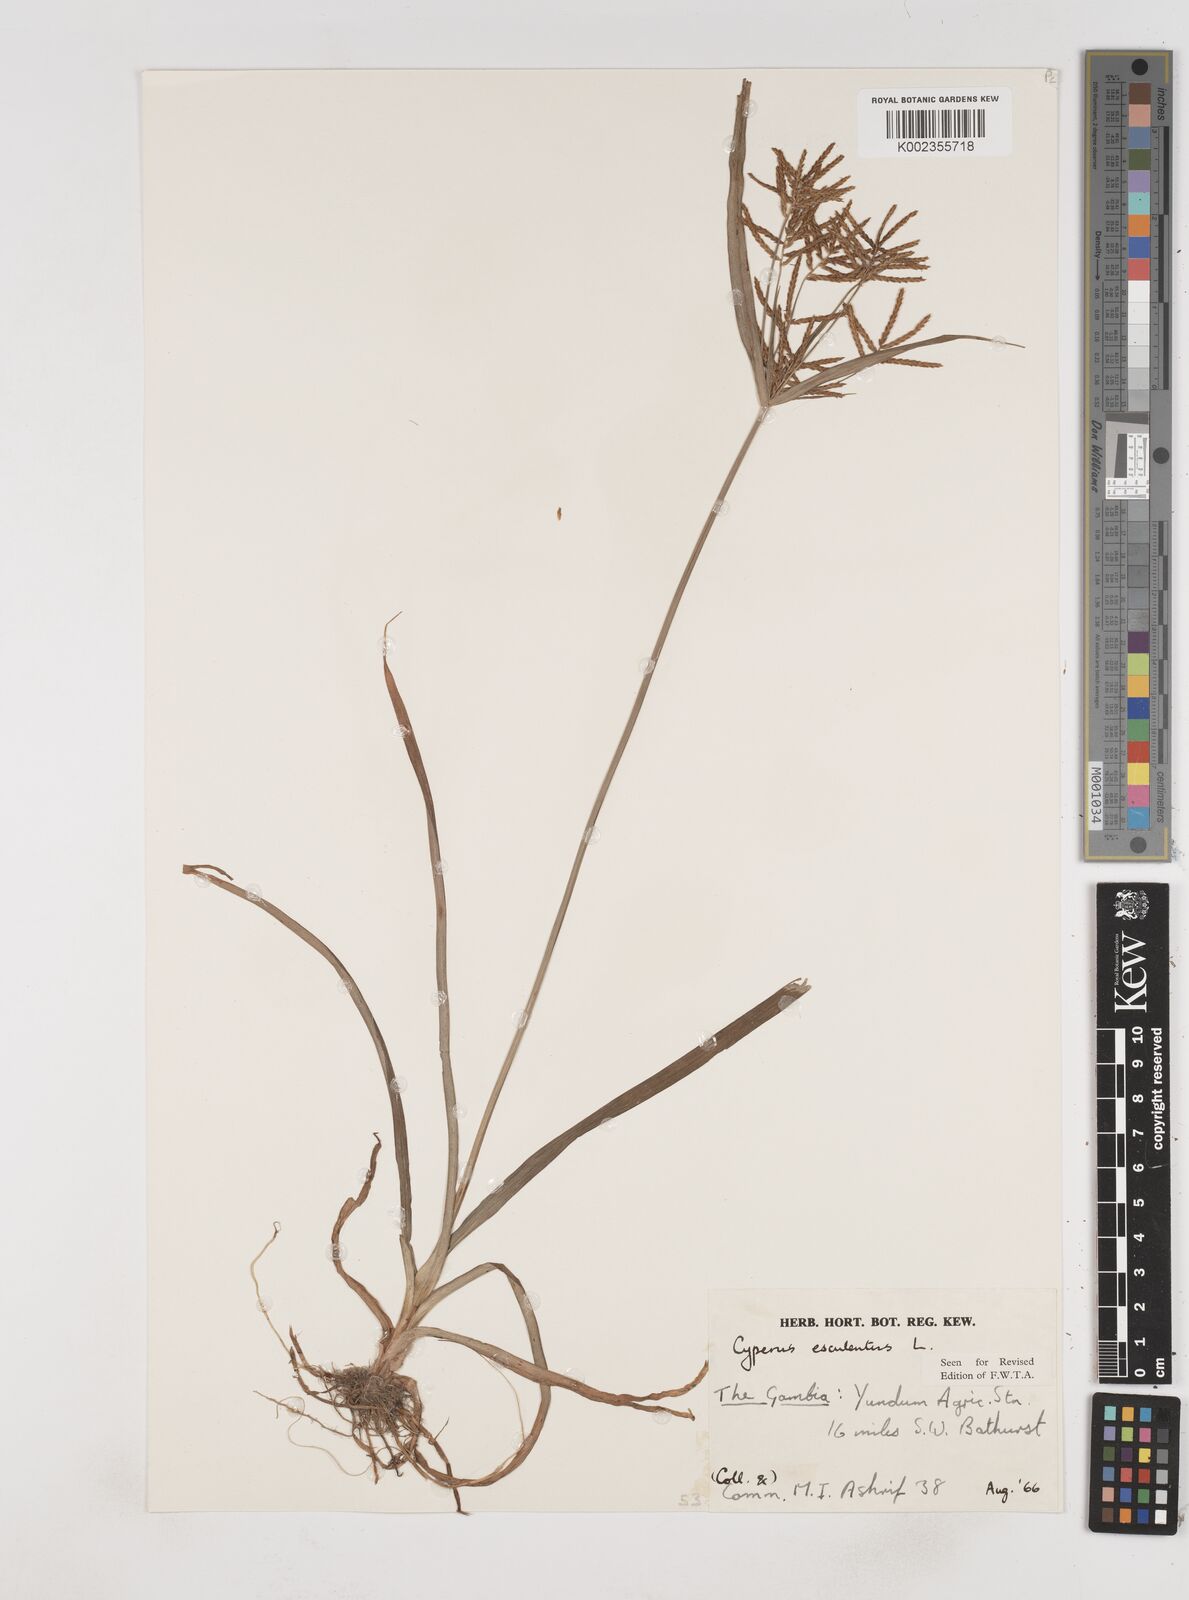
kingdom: Plantae
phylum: Tracheophyta
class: Liliopsida
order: Poales
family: Cyperaceae
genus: Cyperus
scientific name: Cyperus esculentus
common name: Yellow nutsedge
